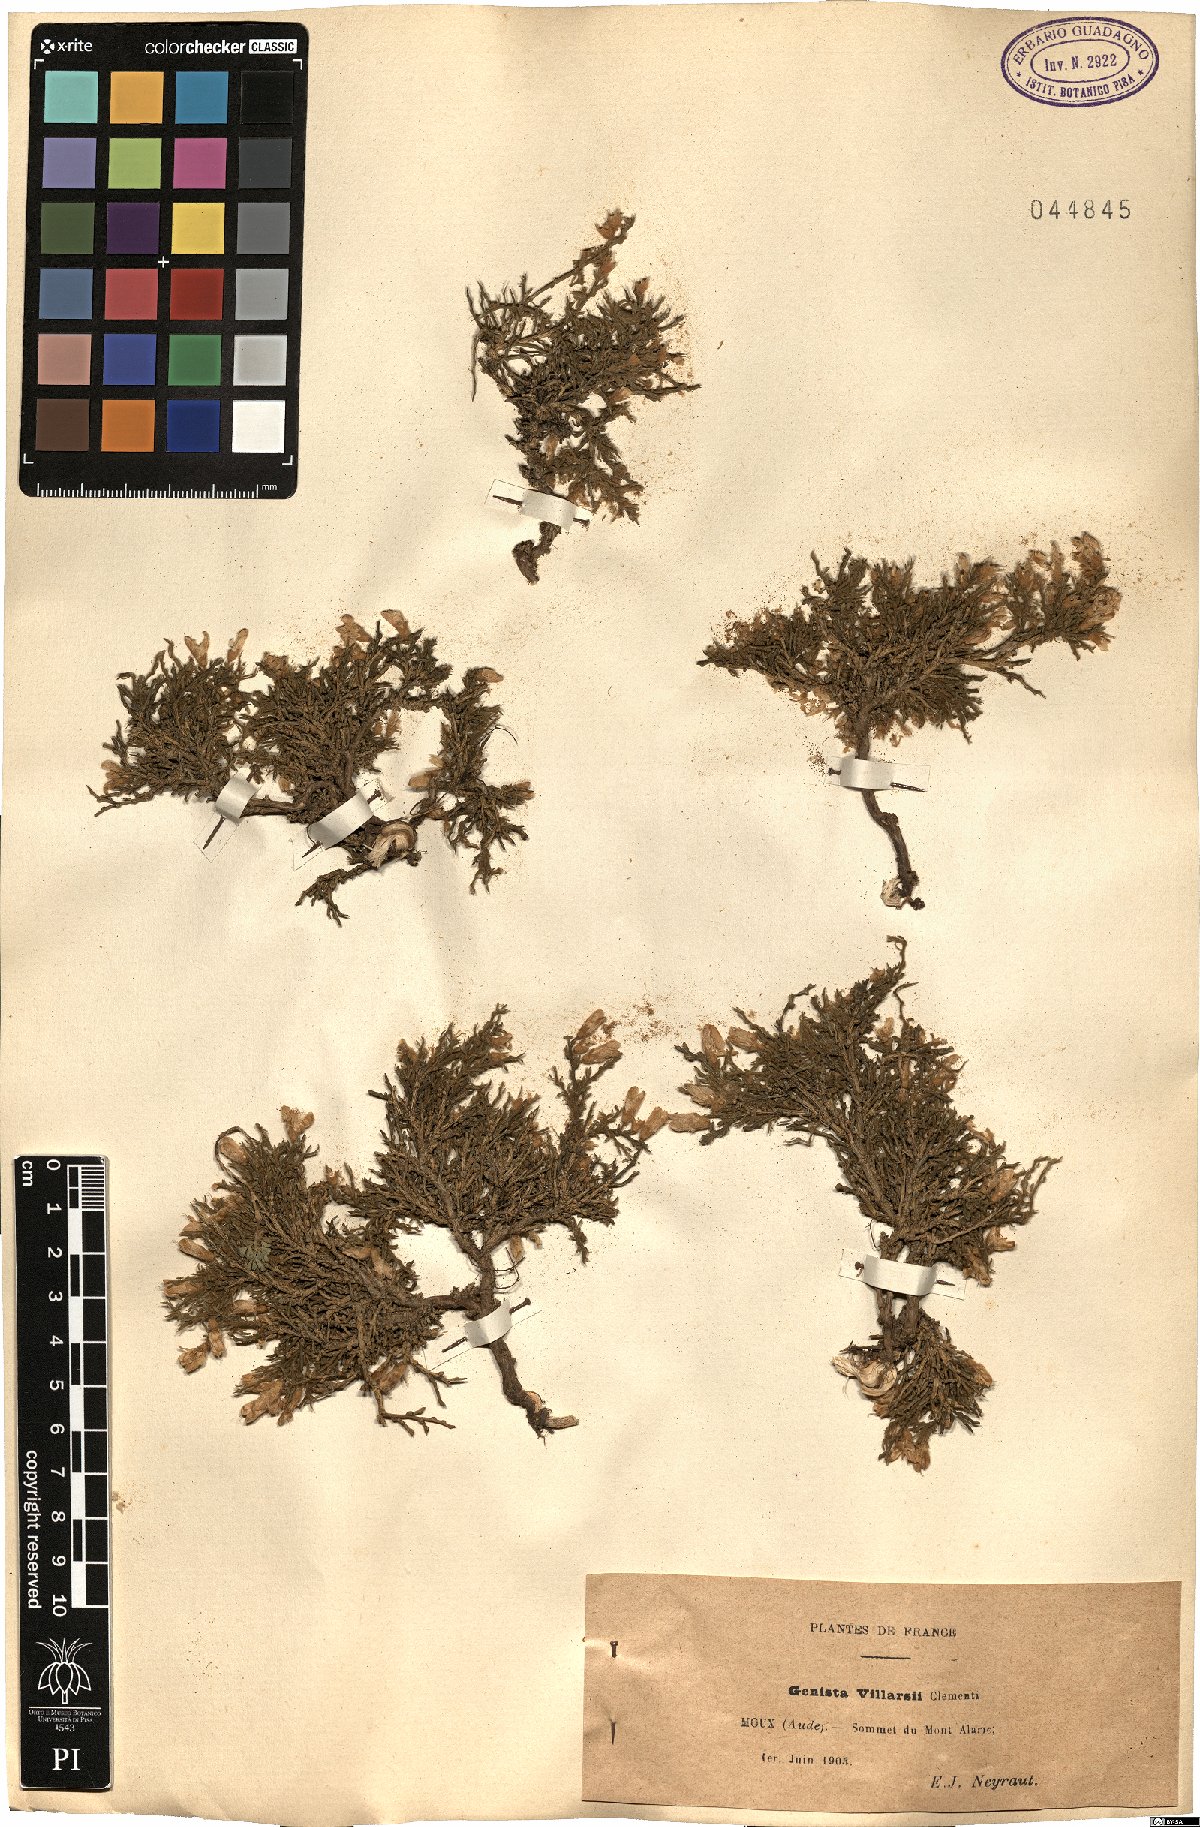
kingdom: Plantae
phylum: Tracheophyta
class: Magnoliopsida
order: Fabales
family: Fabaceae
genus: Genista
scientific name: Genista pulchella
